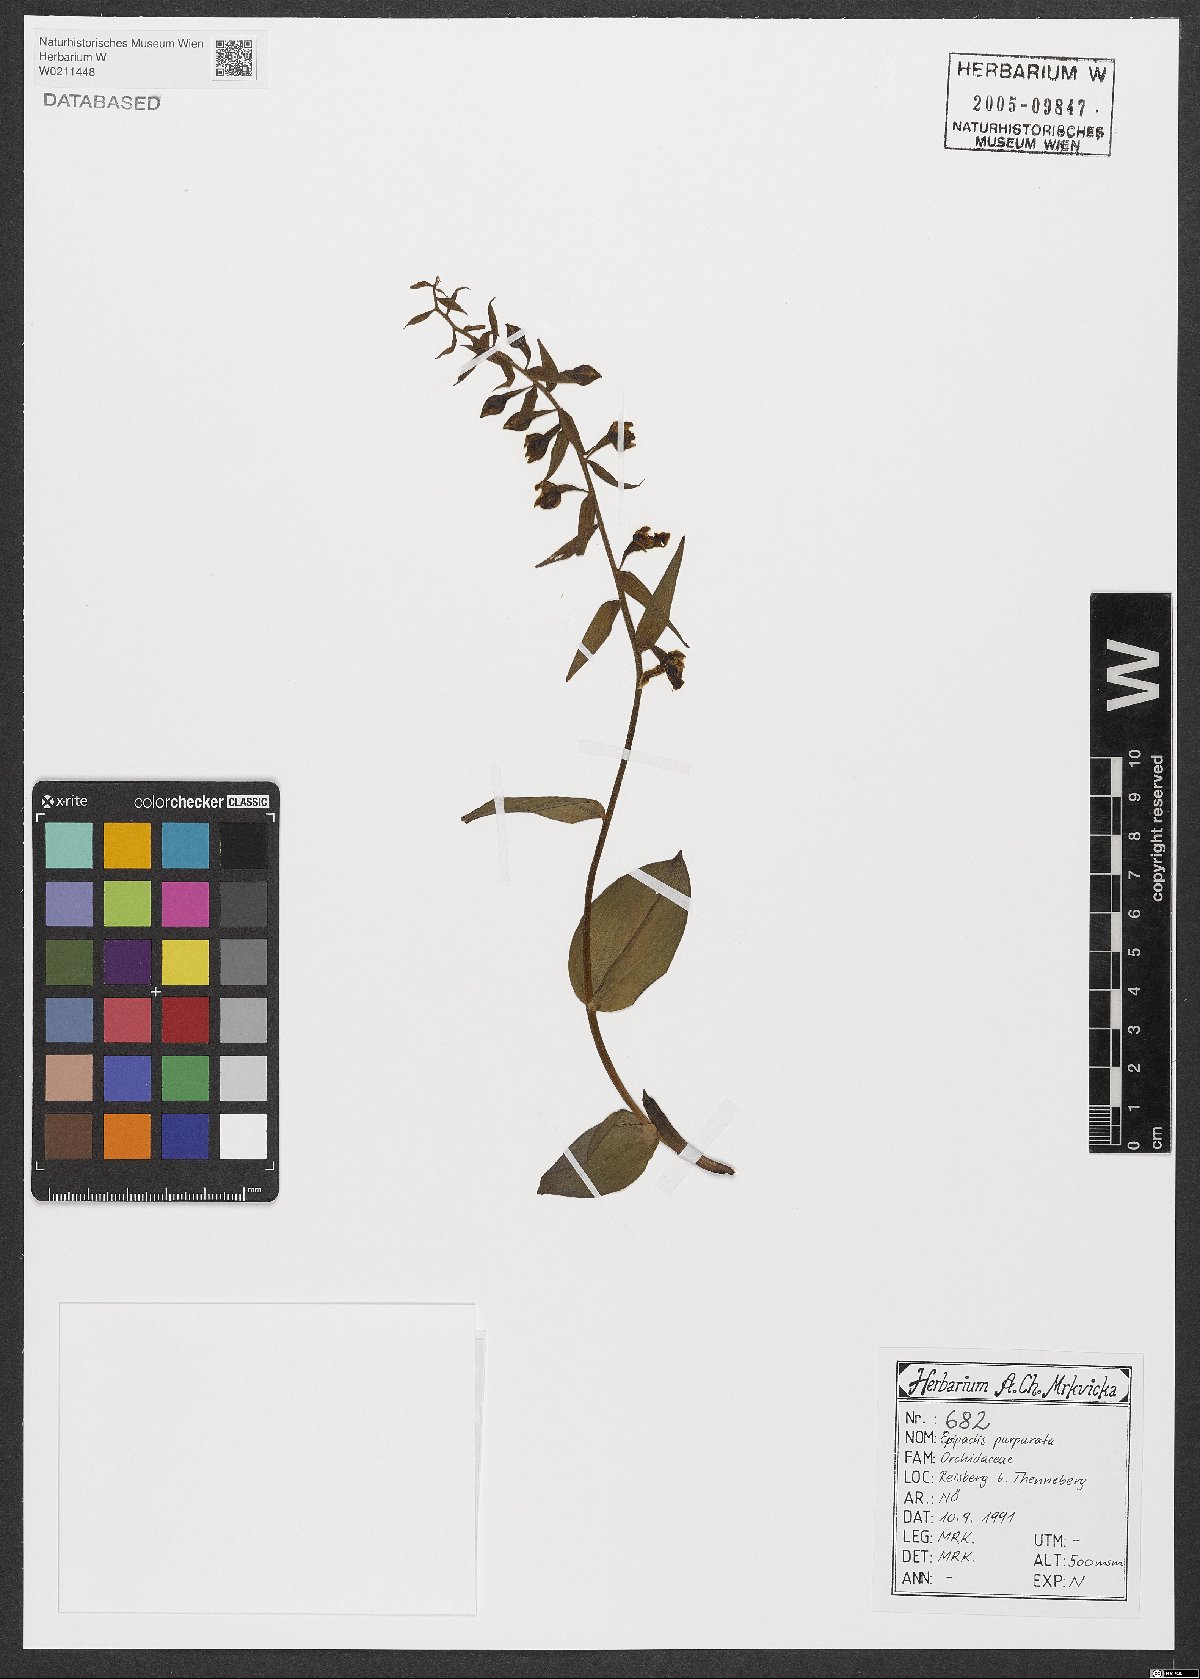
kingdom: Plantae
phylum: Tracheophyta
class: Liliopsida
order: Asparagales
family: Orchidaceae
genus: Epipactis
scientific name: Epipactis purpurata
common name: Violet helleborine
